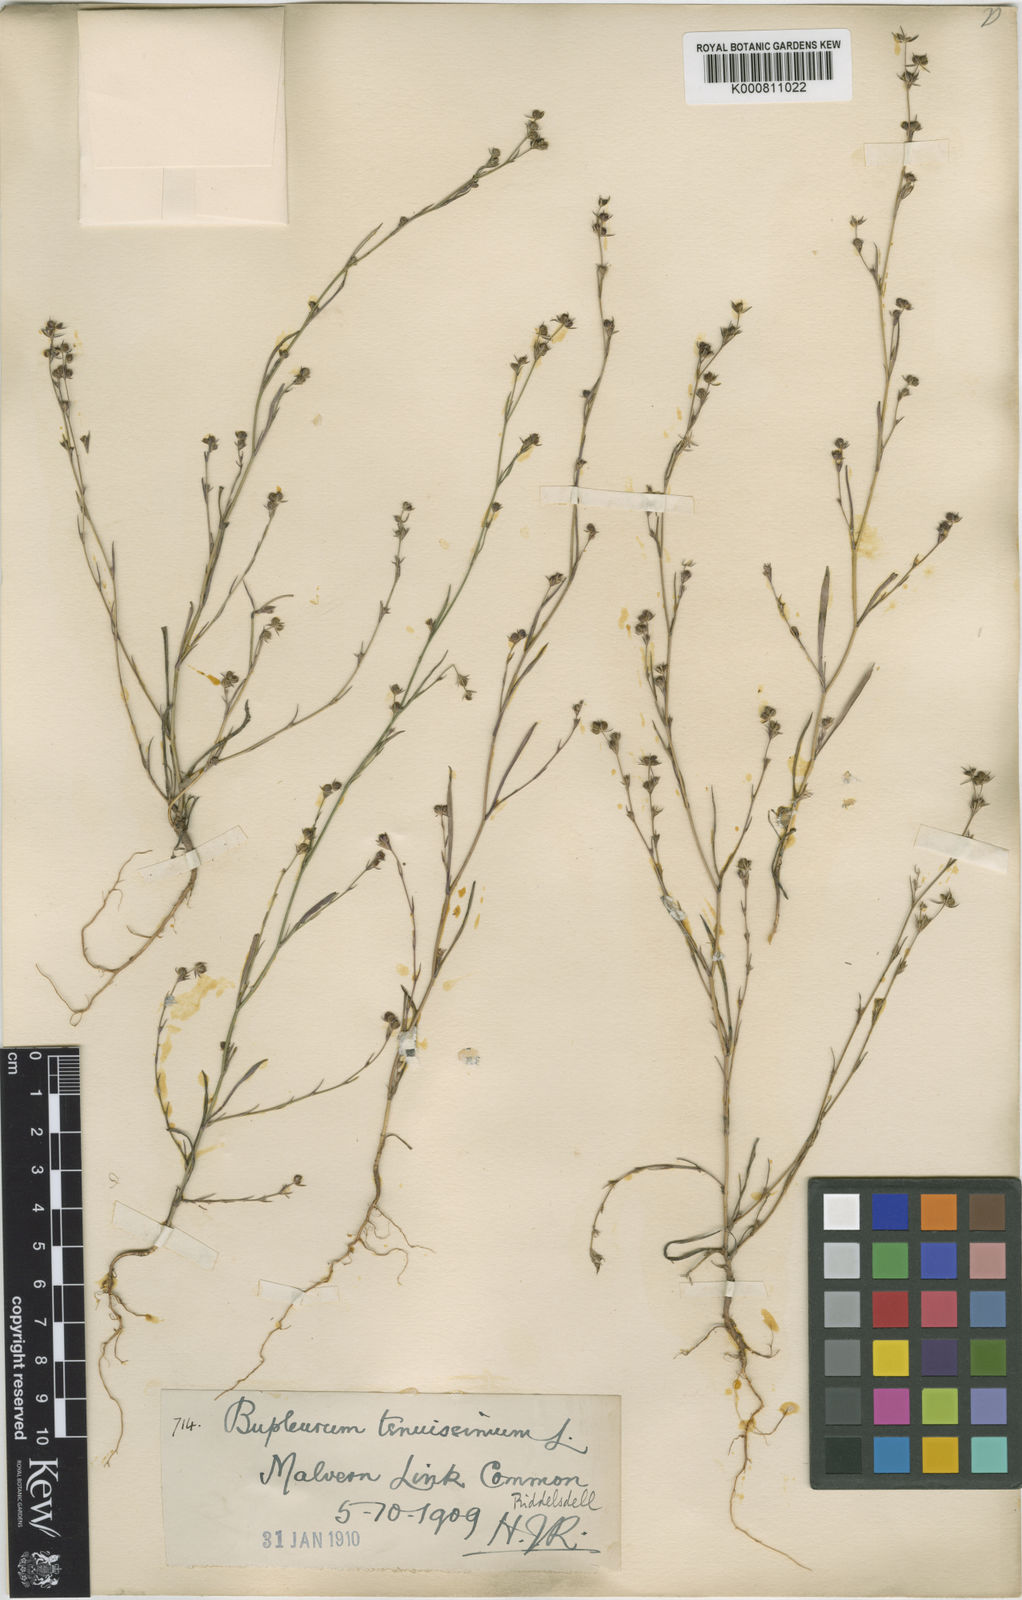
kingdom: Plantae
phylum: Tracheophyta
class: Magnoliopsida
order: Apiales
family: Apiaceae
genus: Bupleurum
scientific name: Bupleurum tenuissimum
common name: Slender hare's-ear
